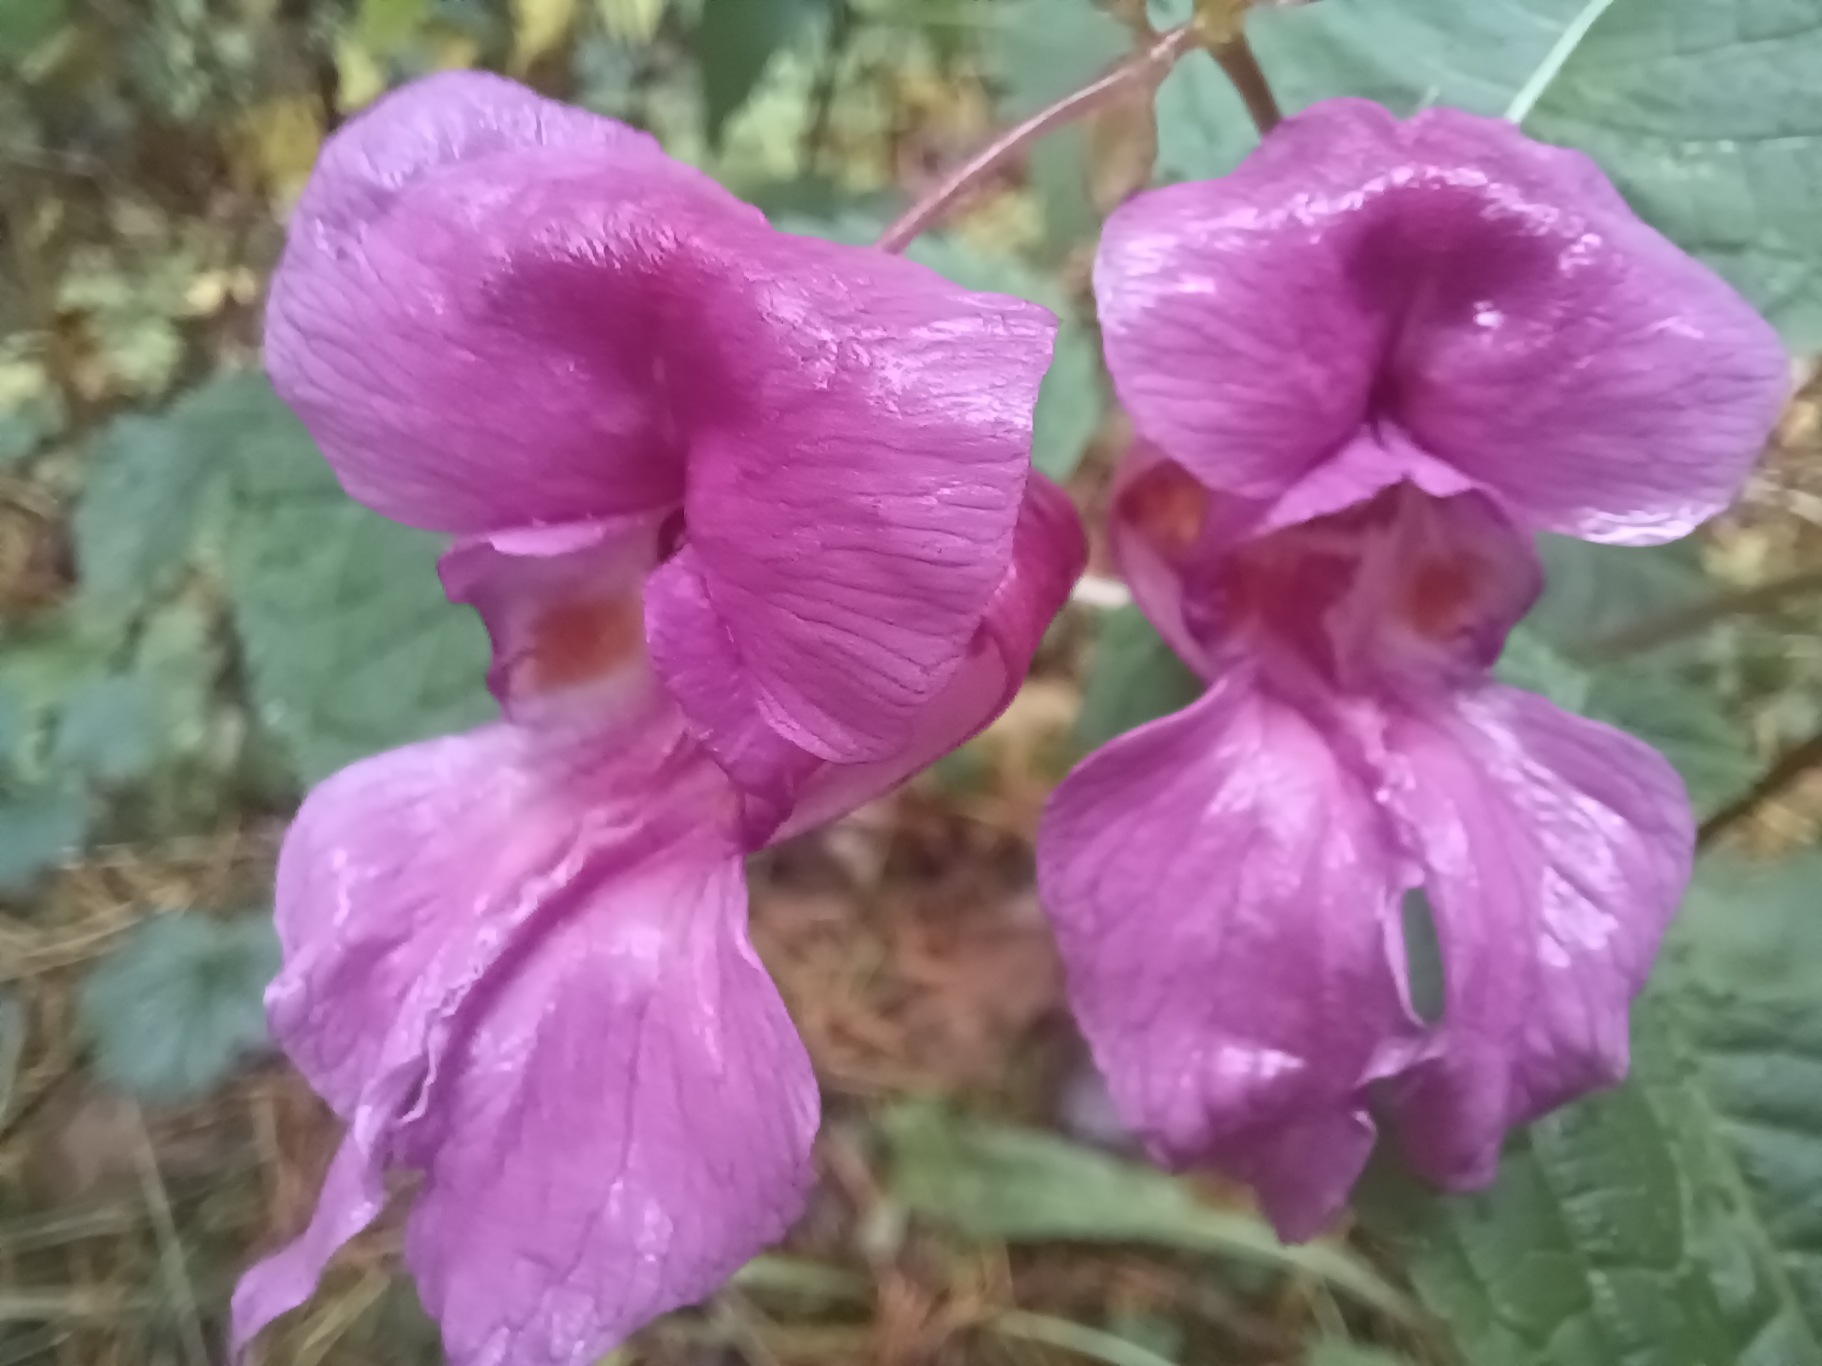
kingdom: Plantae
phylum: Tracheophyta
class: Magnoliopsida
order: Ericales
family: Balsaminaceae
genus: Impatiens
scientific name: Impatiens glandulifera
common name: Kæmpe-balsamin
